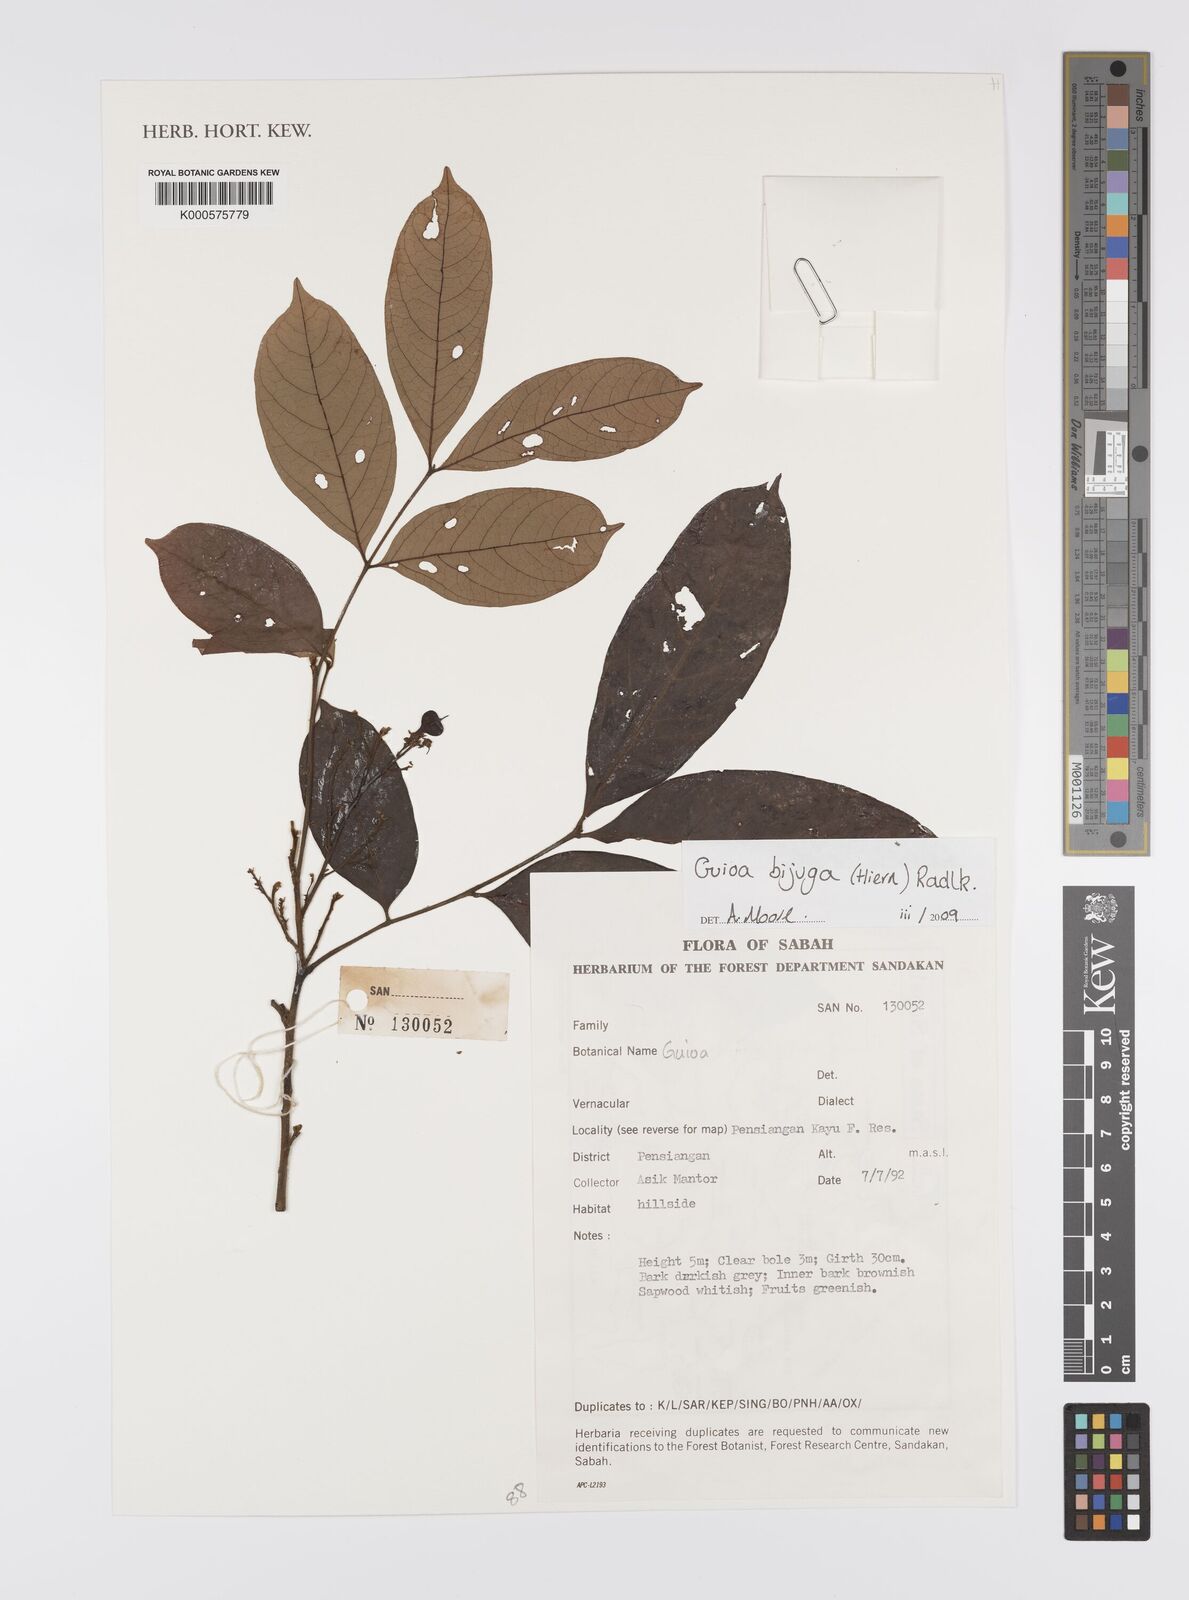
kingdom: Plantae
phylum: Tracheophyta
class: Magnoliopsida
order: Sapindales
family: Sapindaceae
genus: Guioa
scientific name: Guioa bijuga
